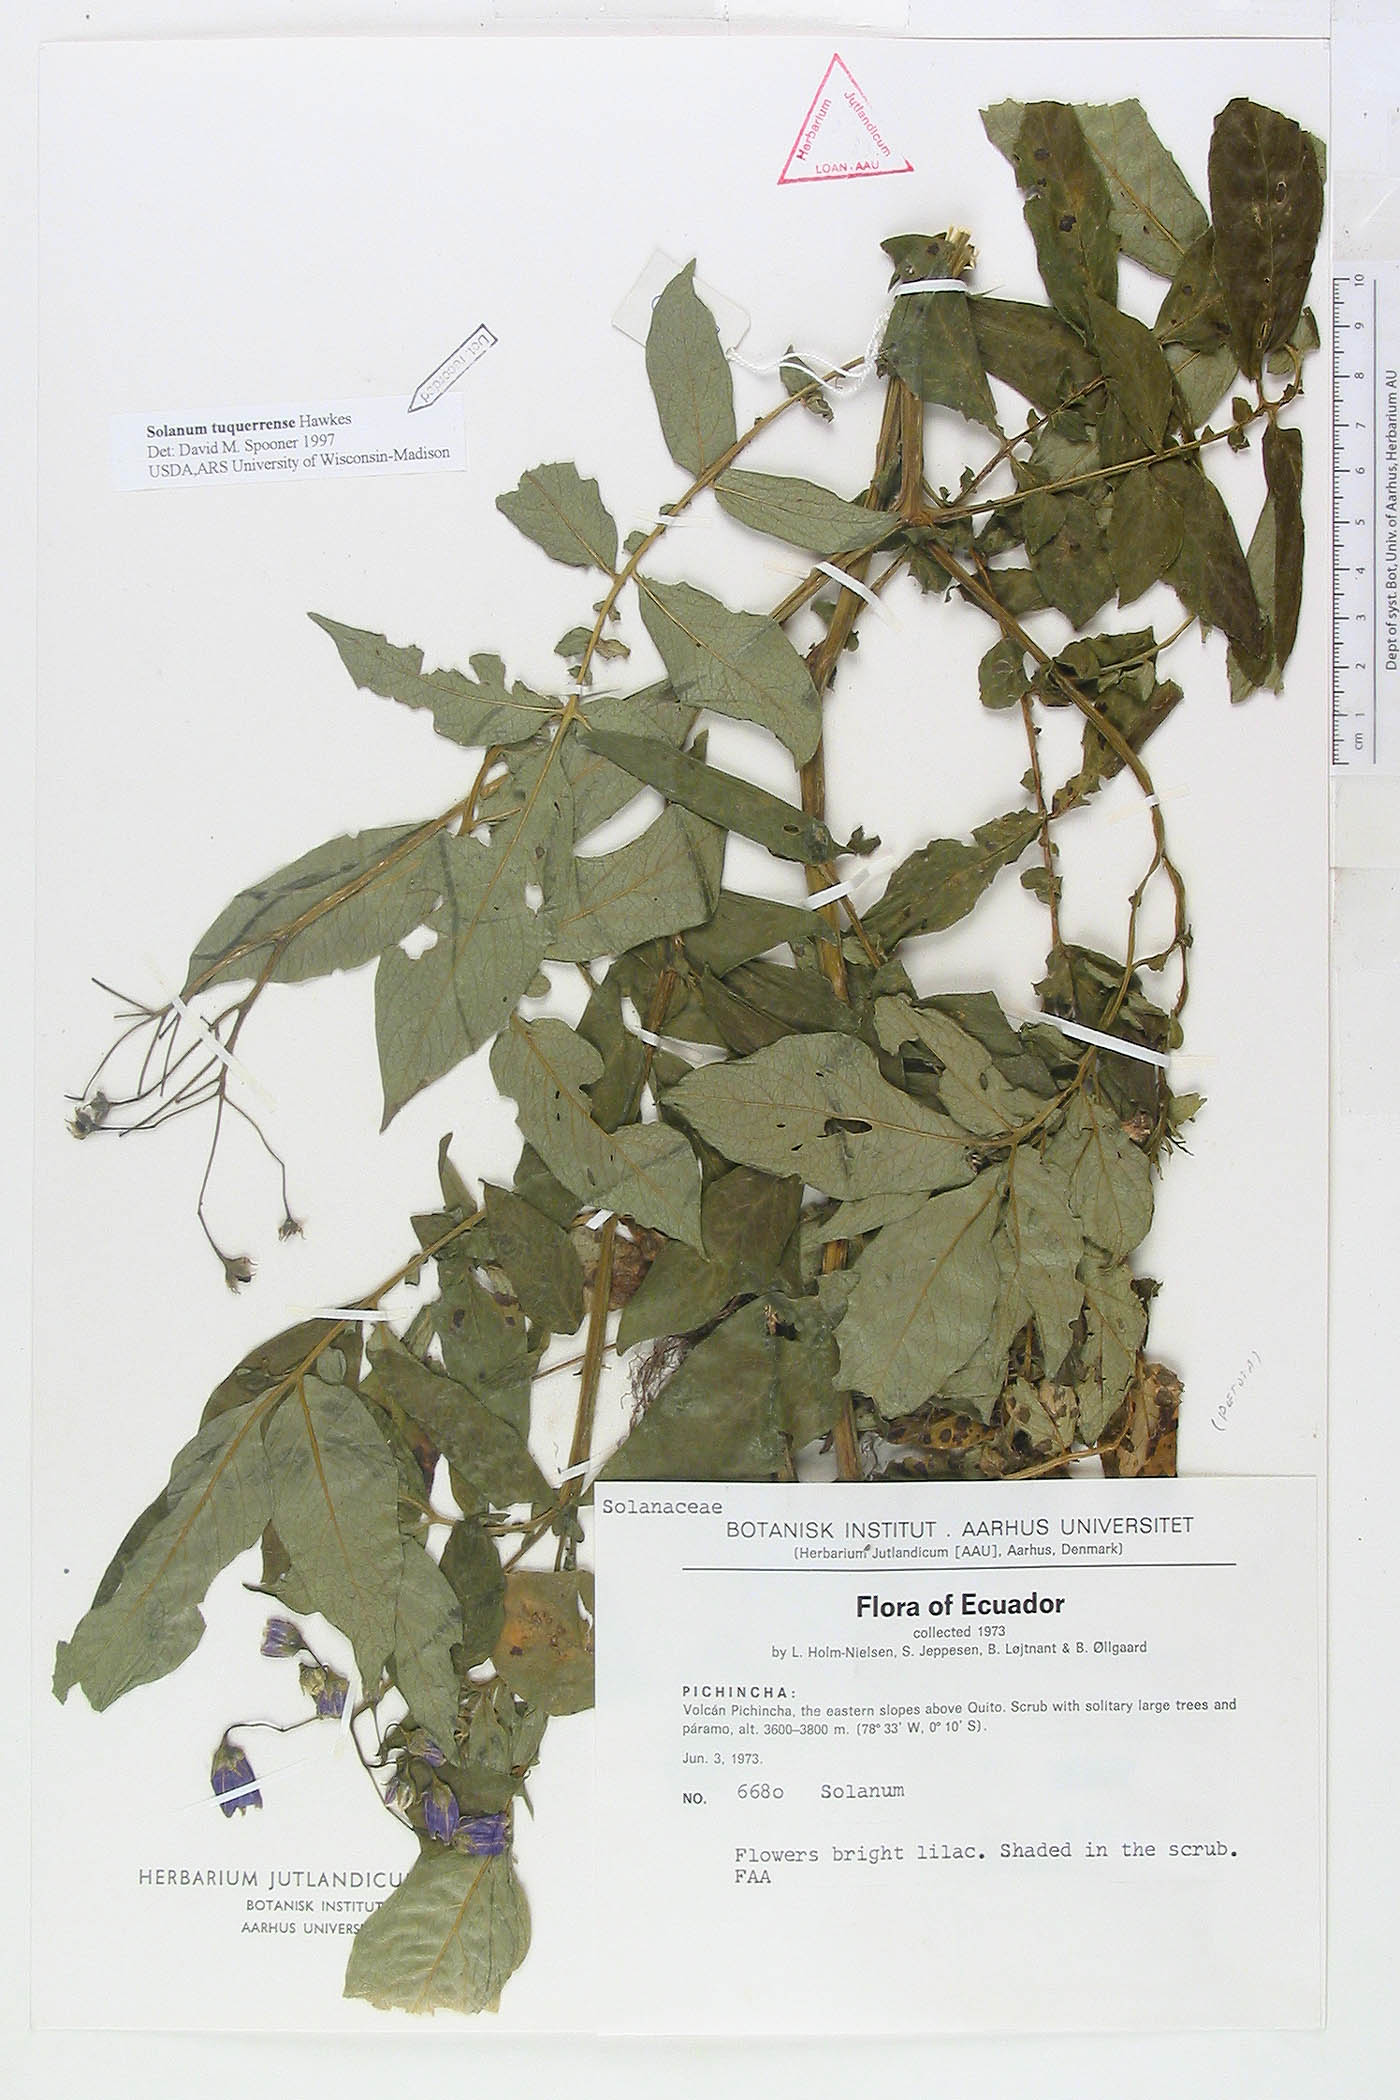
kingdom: Plantae
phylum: Tracheophyta
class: Magnoliopsida
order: Solanales
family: Solanaceae
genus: Solanum
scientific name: Solanum andreanum
